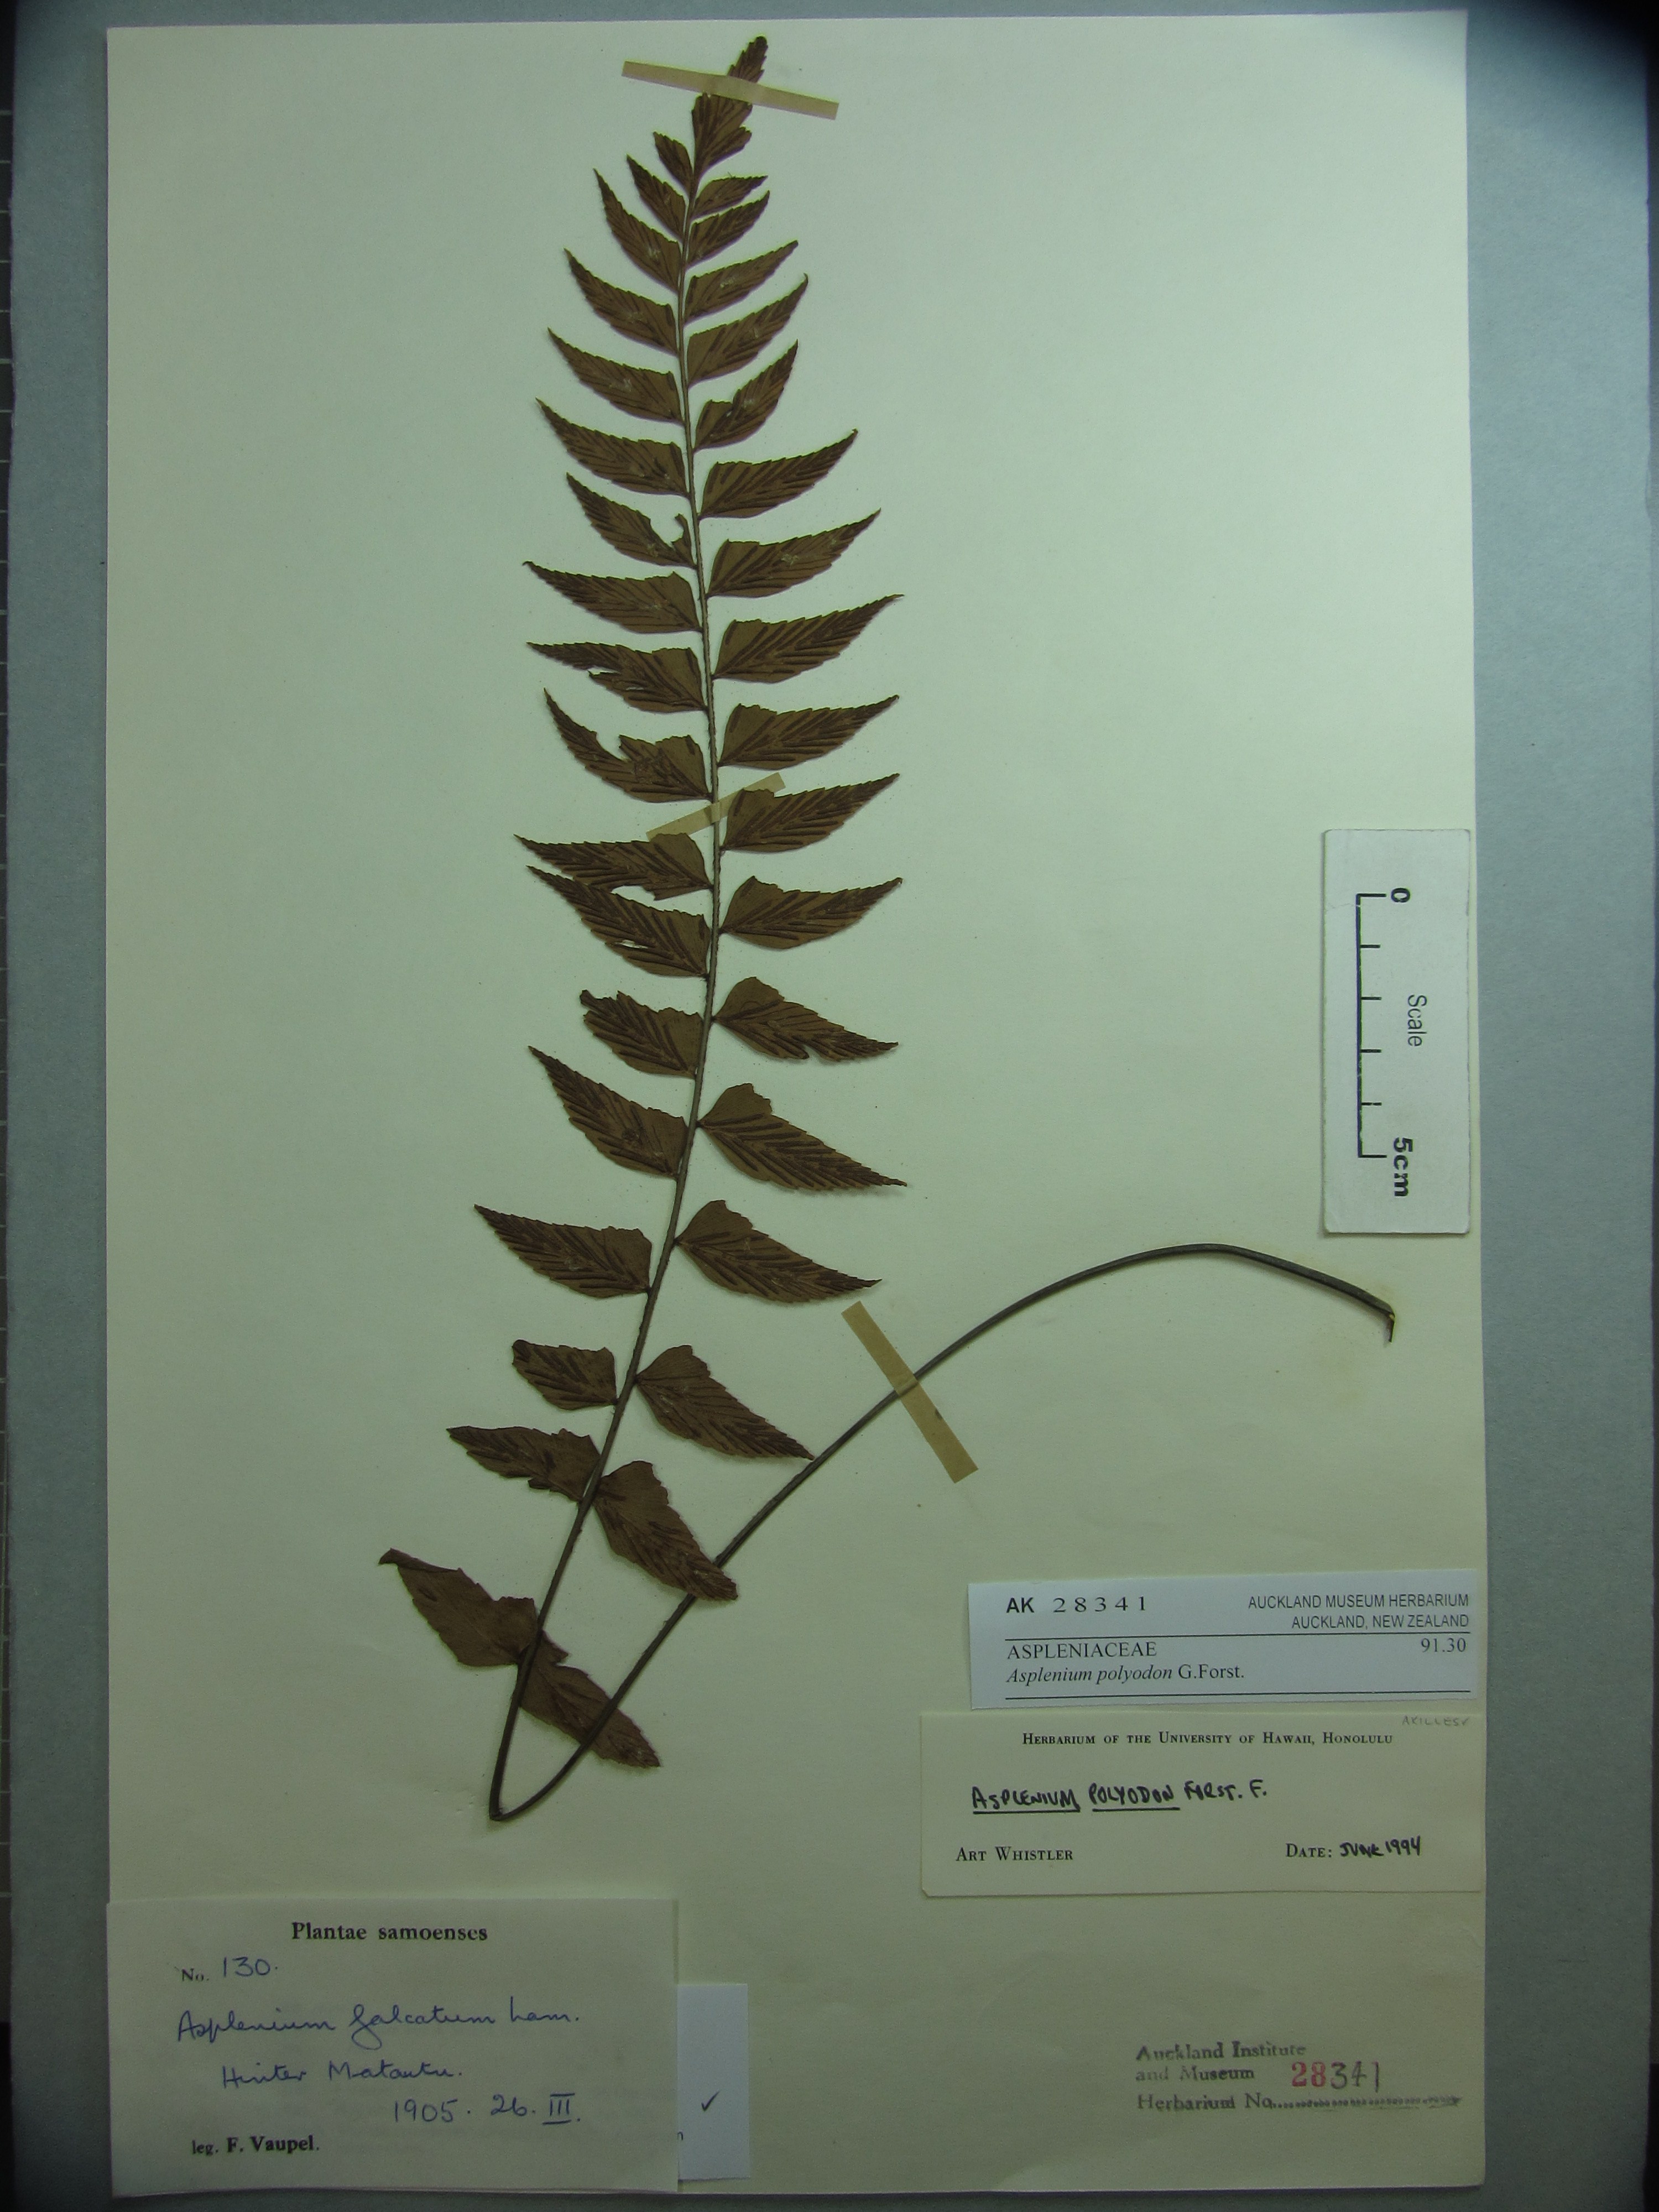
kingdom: Plantae
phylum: Tracheophyta
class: Polypodiopsida
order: Polypodiales
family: Aspleniaceae
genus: Asplenium
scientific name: Asplenium polyodon
